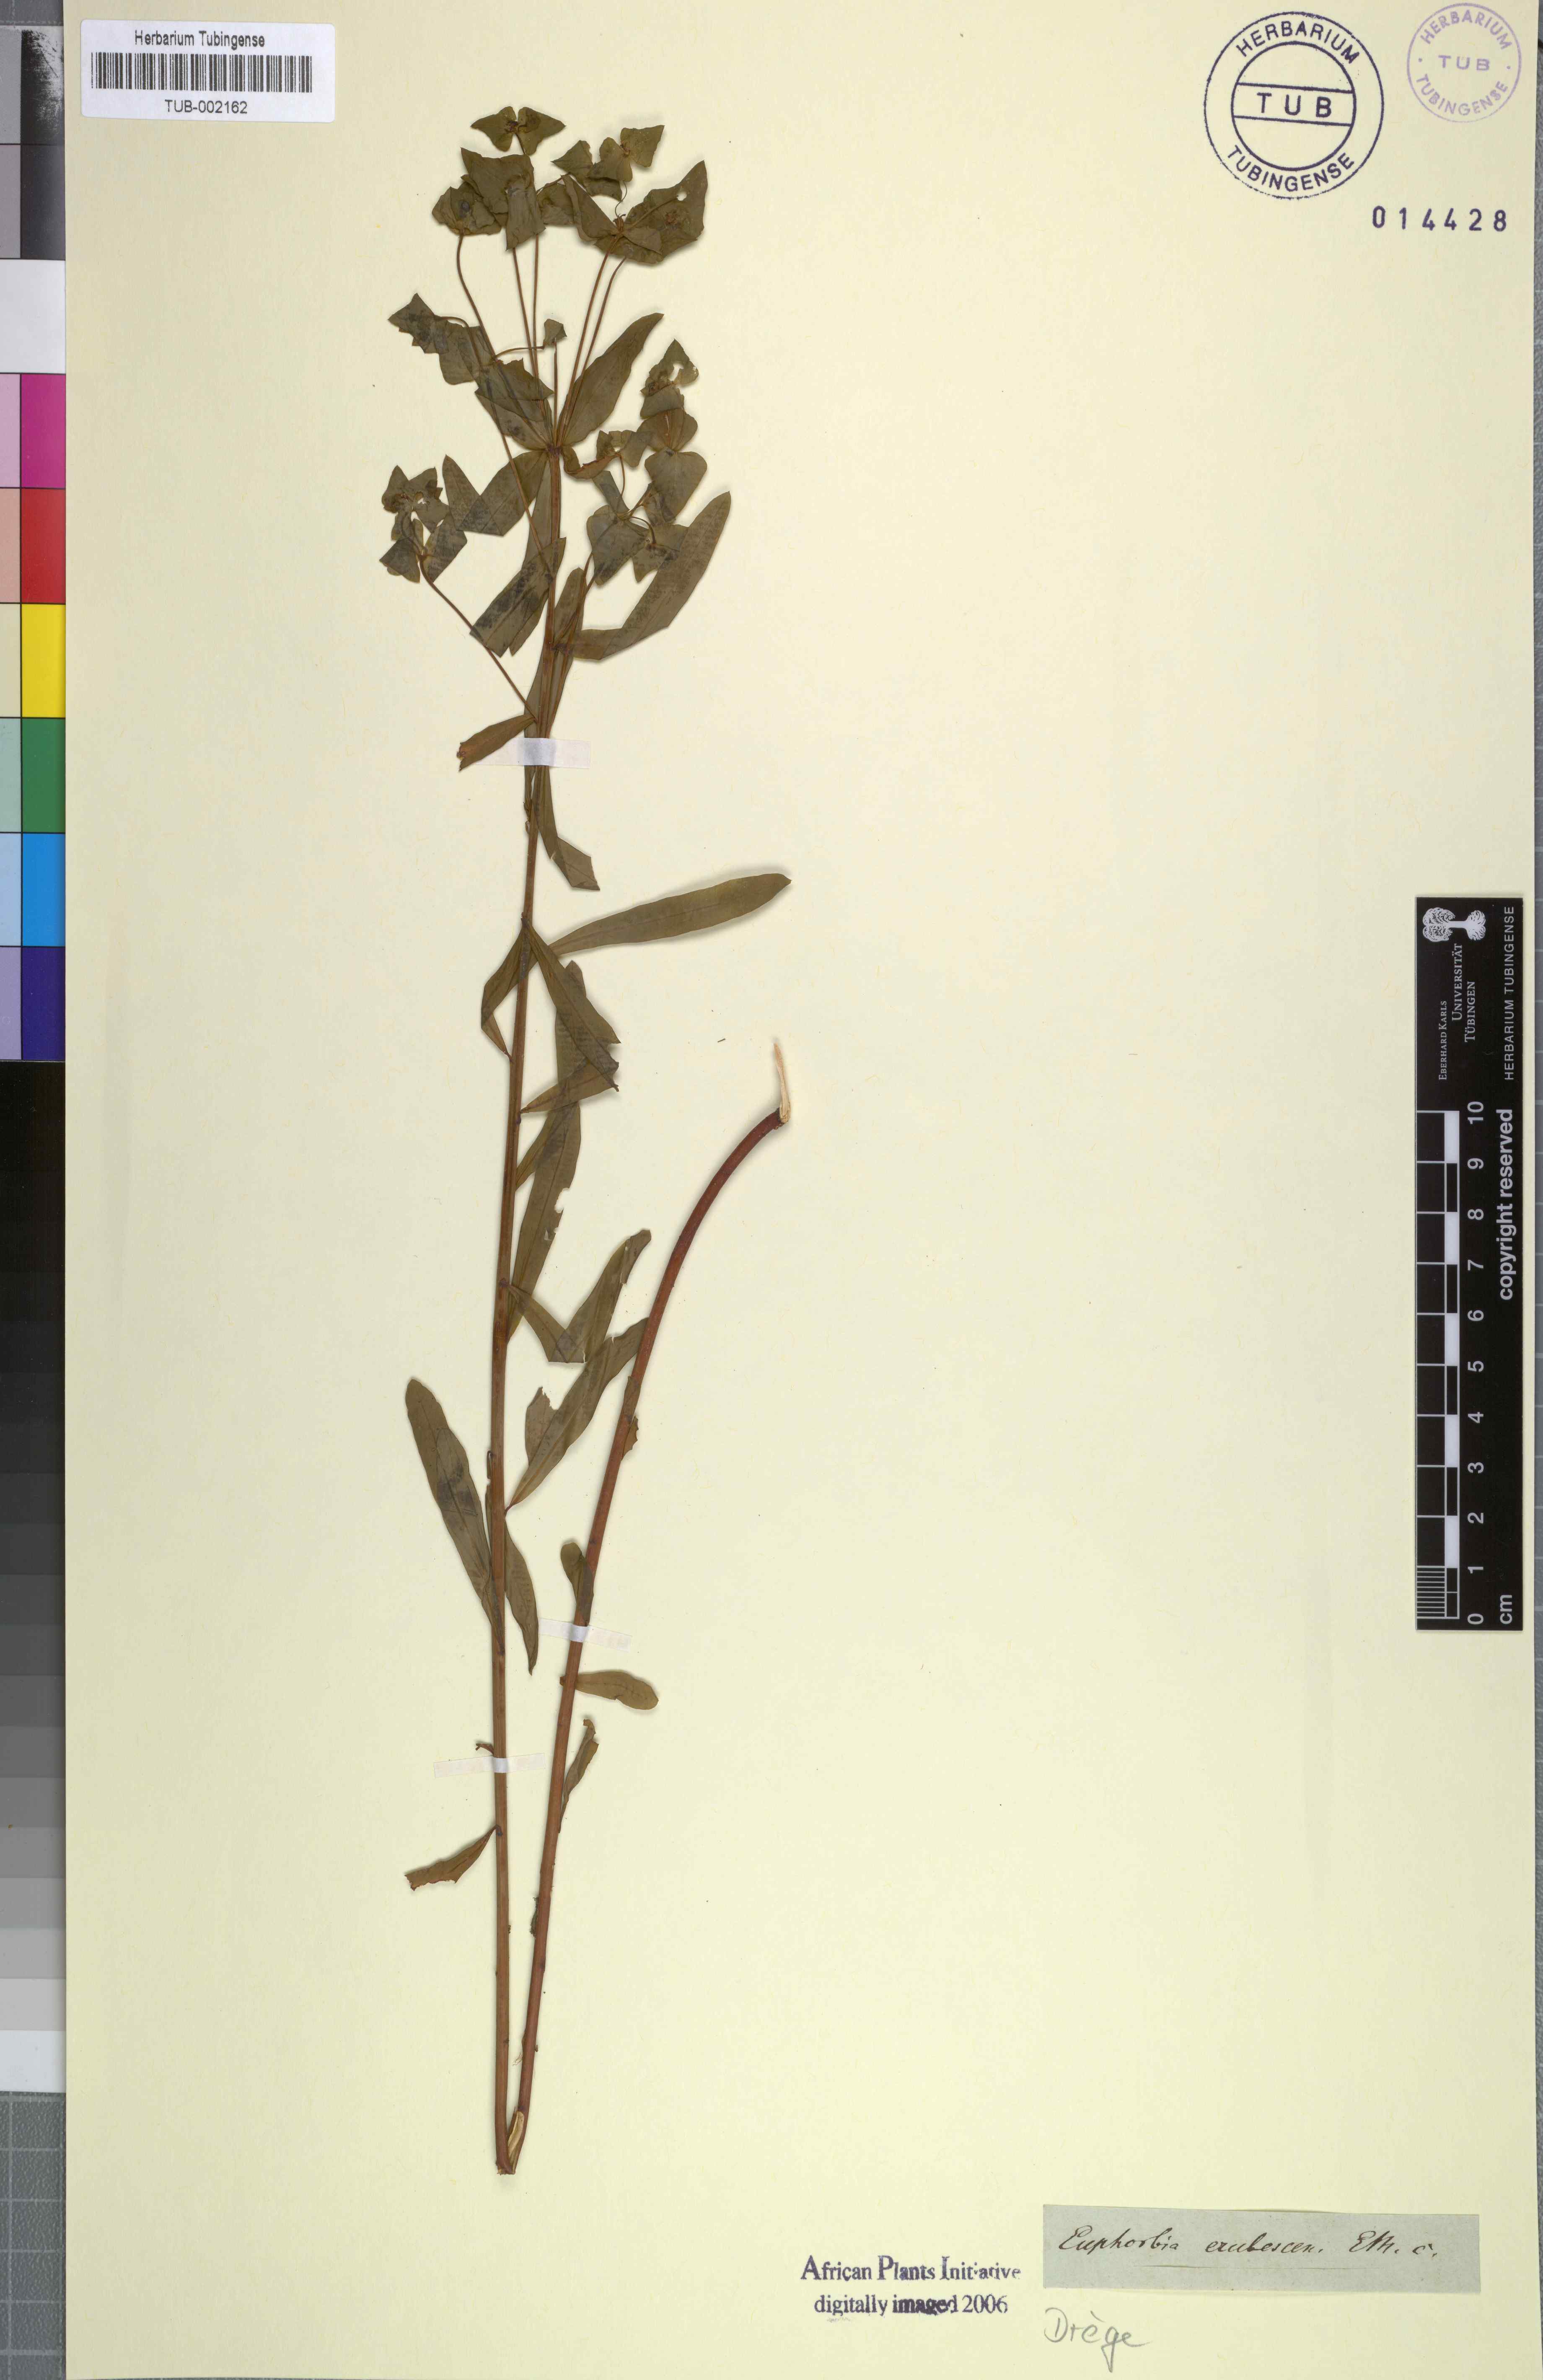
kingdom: Plantae
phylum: Tracheophyta
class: Magnoliopsida
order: Malpighiales
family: Euphorbiaceae
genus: Euphorbia
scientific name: Euphorbia kraussiana
